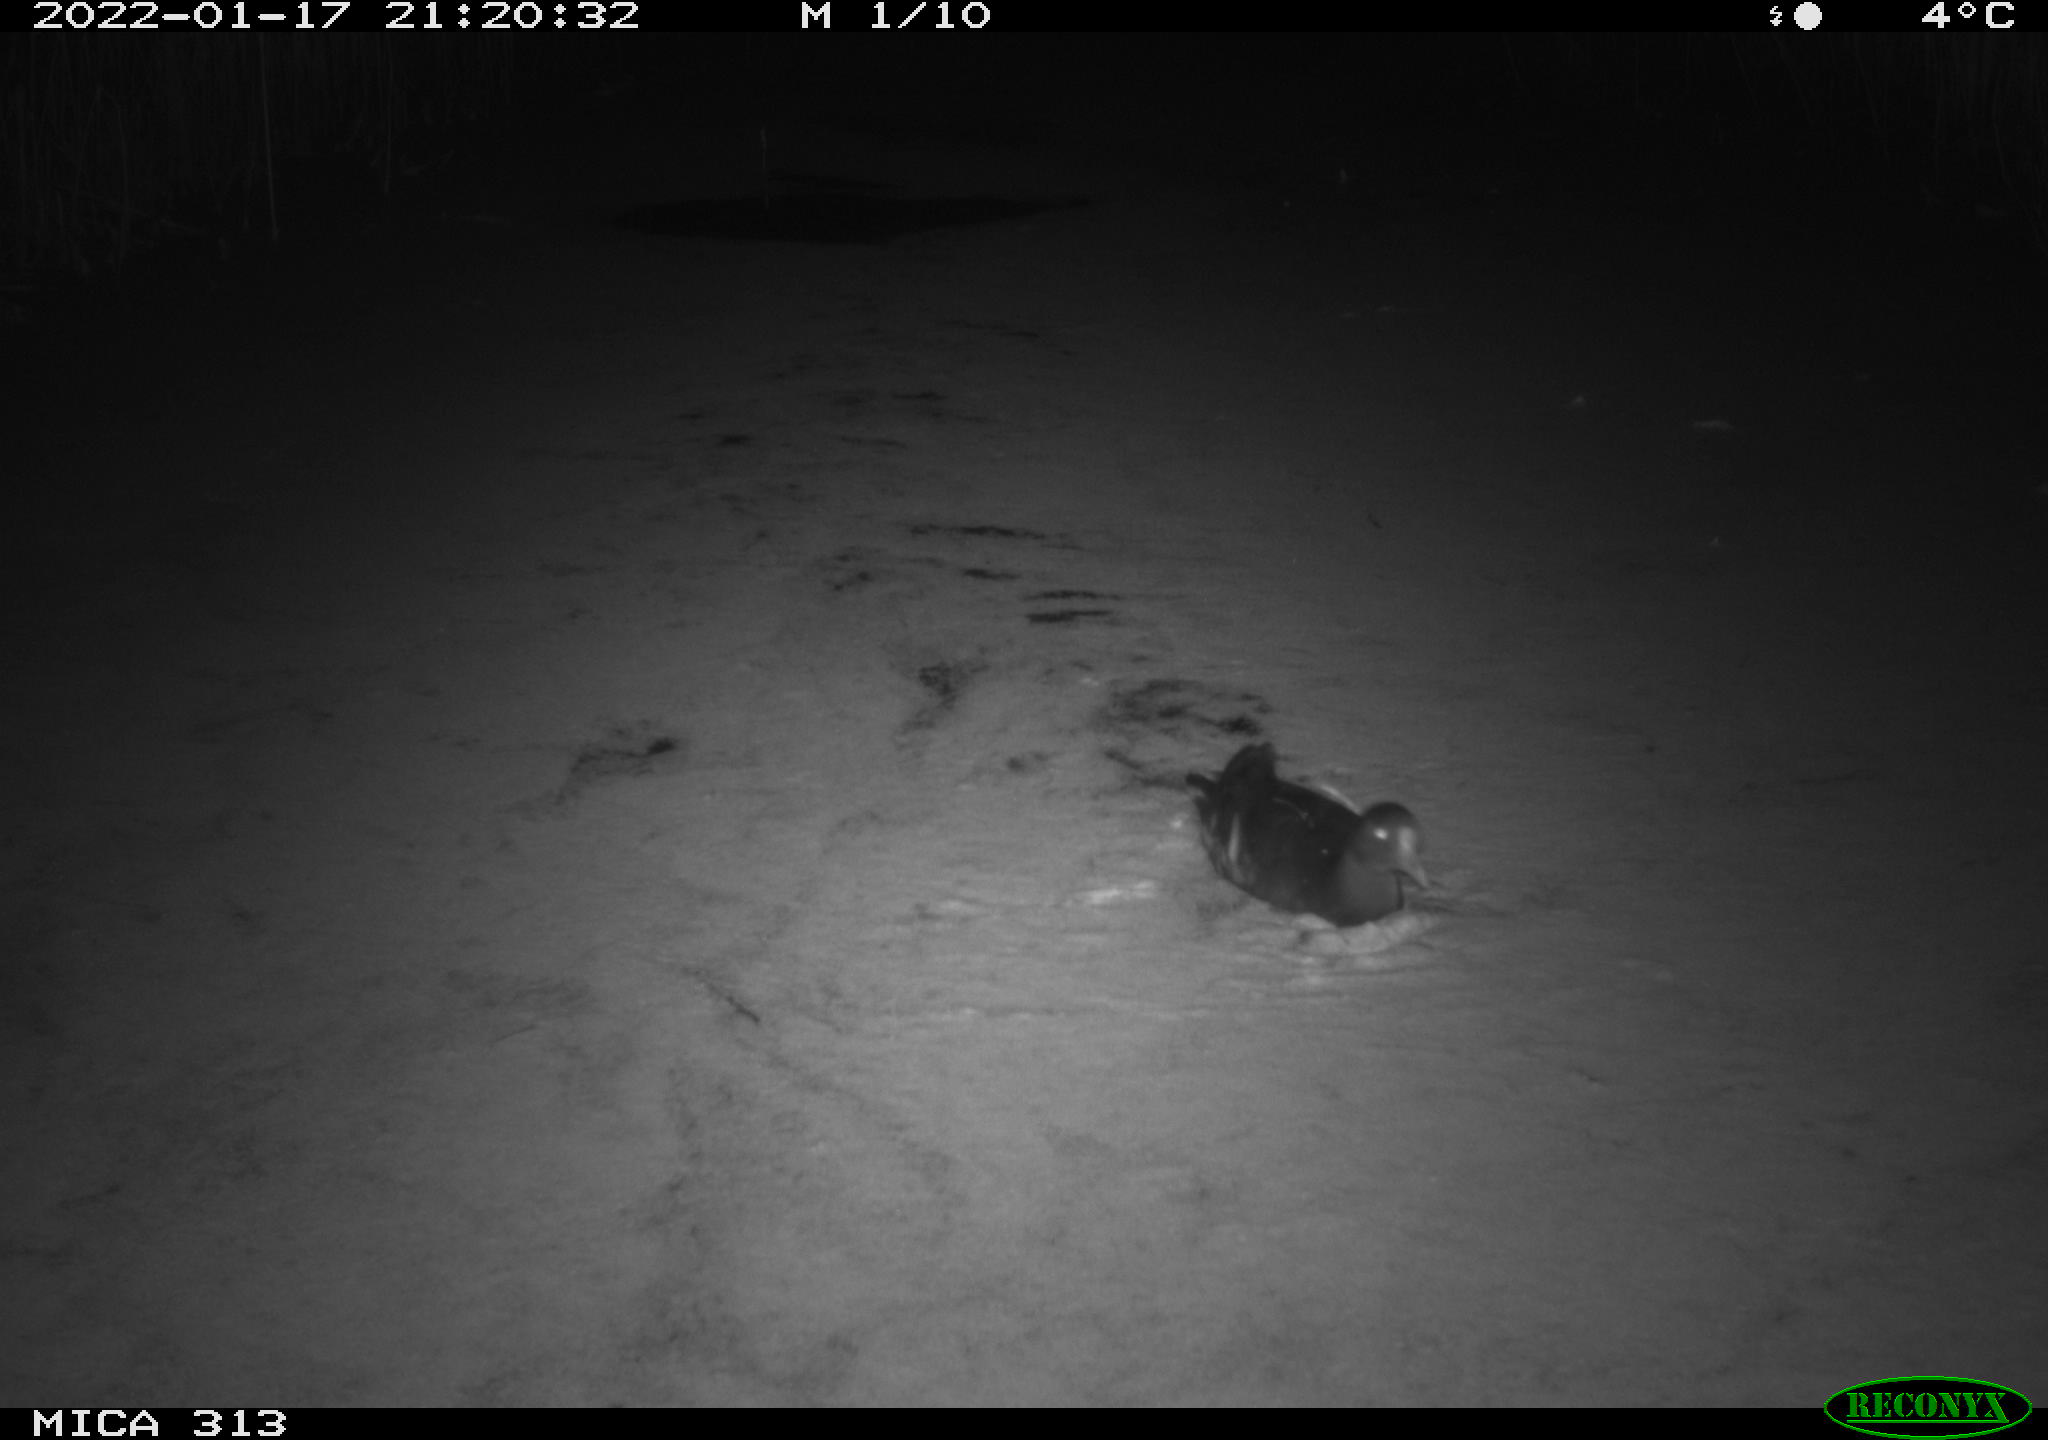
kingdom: Animalia
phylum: Chordata
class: Aves
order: Gruiformes
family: Rallidae
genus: Gallinula
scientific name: Gallinula chloropus
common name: Common moorhen
